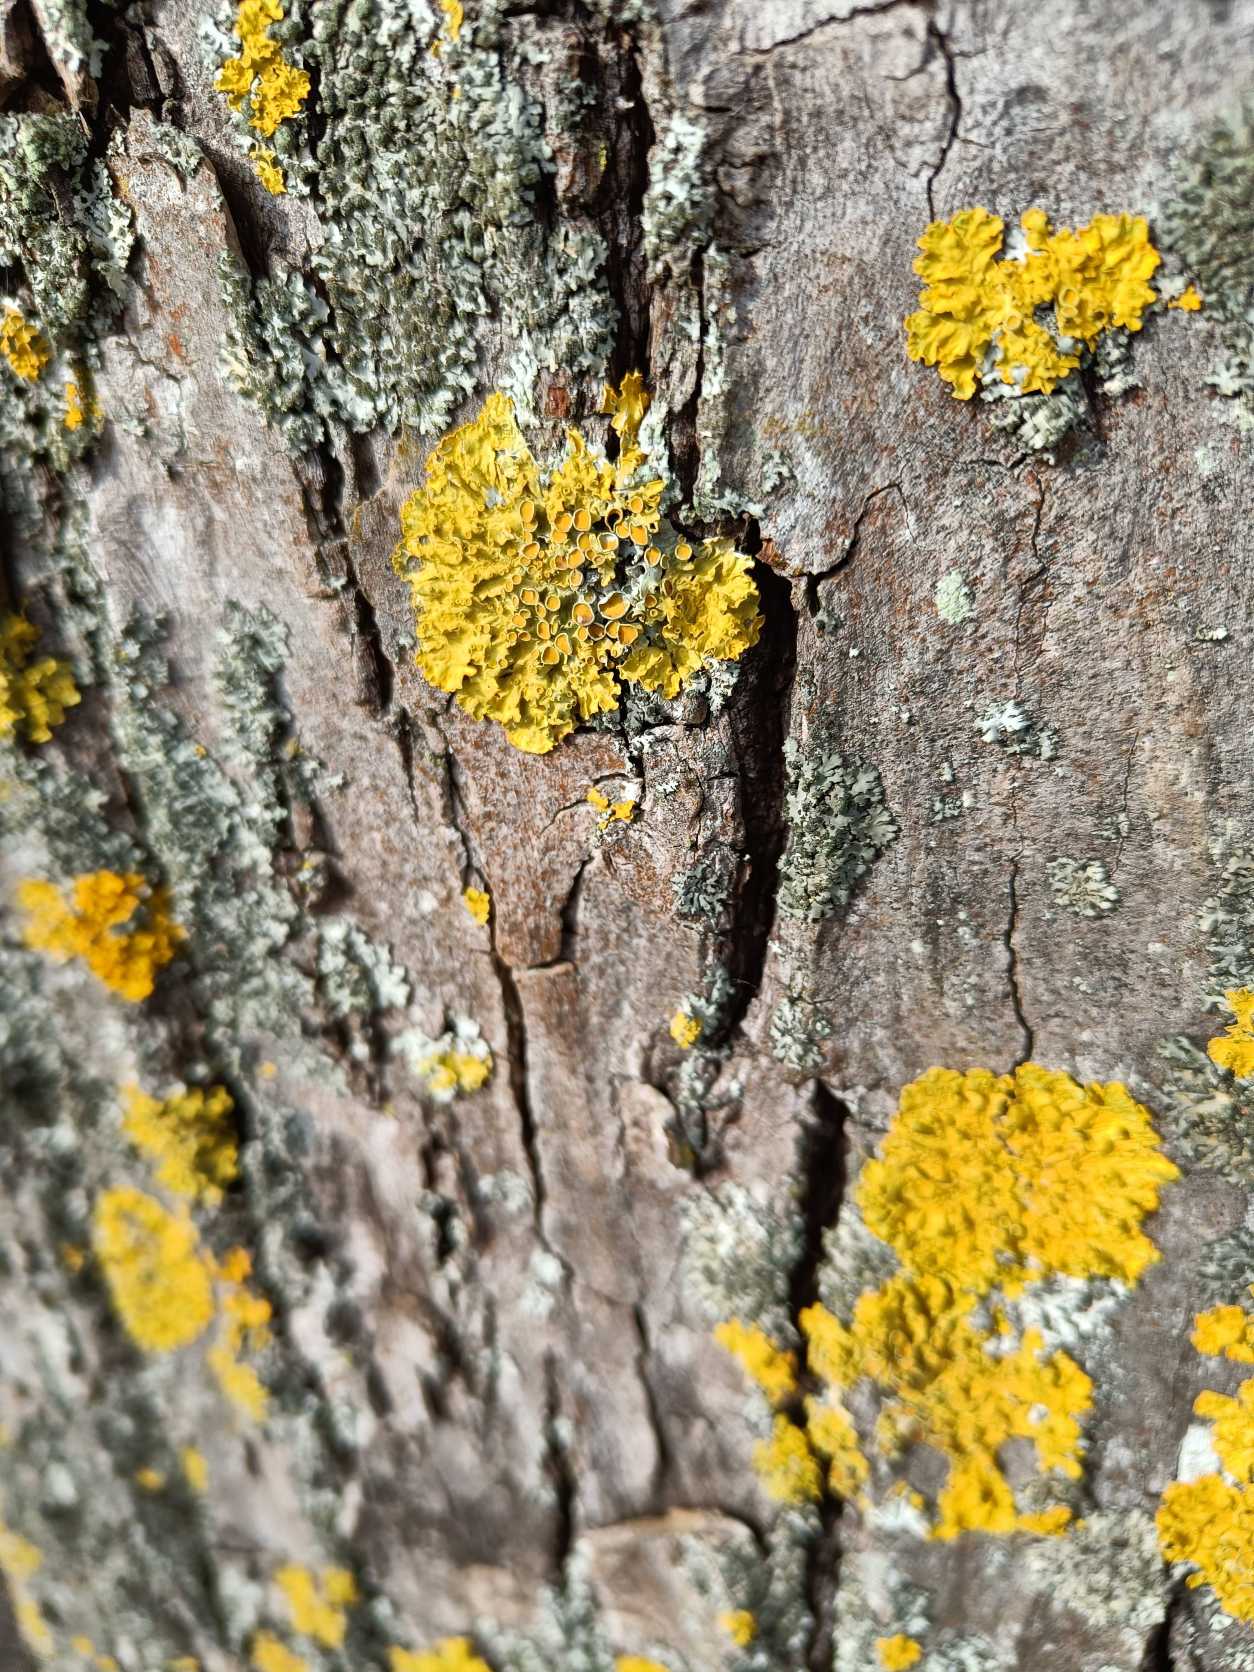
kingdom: Fungi
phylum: Ascomycota
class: Lecanoromycetes
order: Teloschistales
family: Teloschistaceae
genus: Xanthoria
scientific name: Xanthoria parietina
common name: Almindelig væggelav
